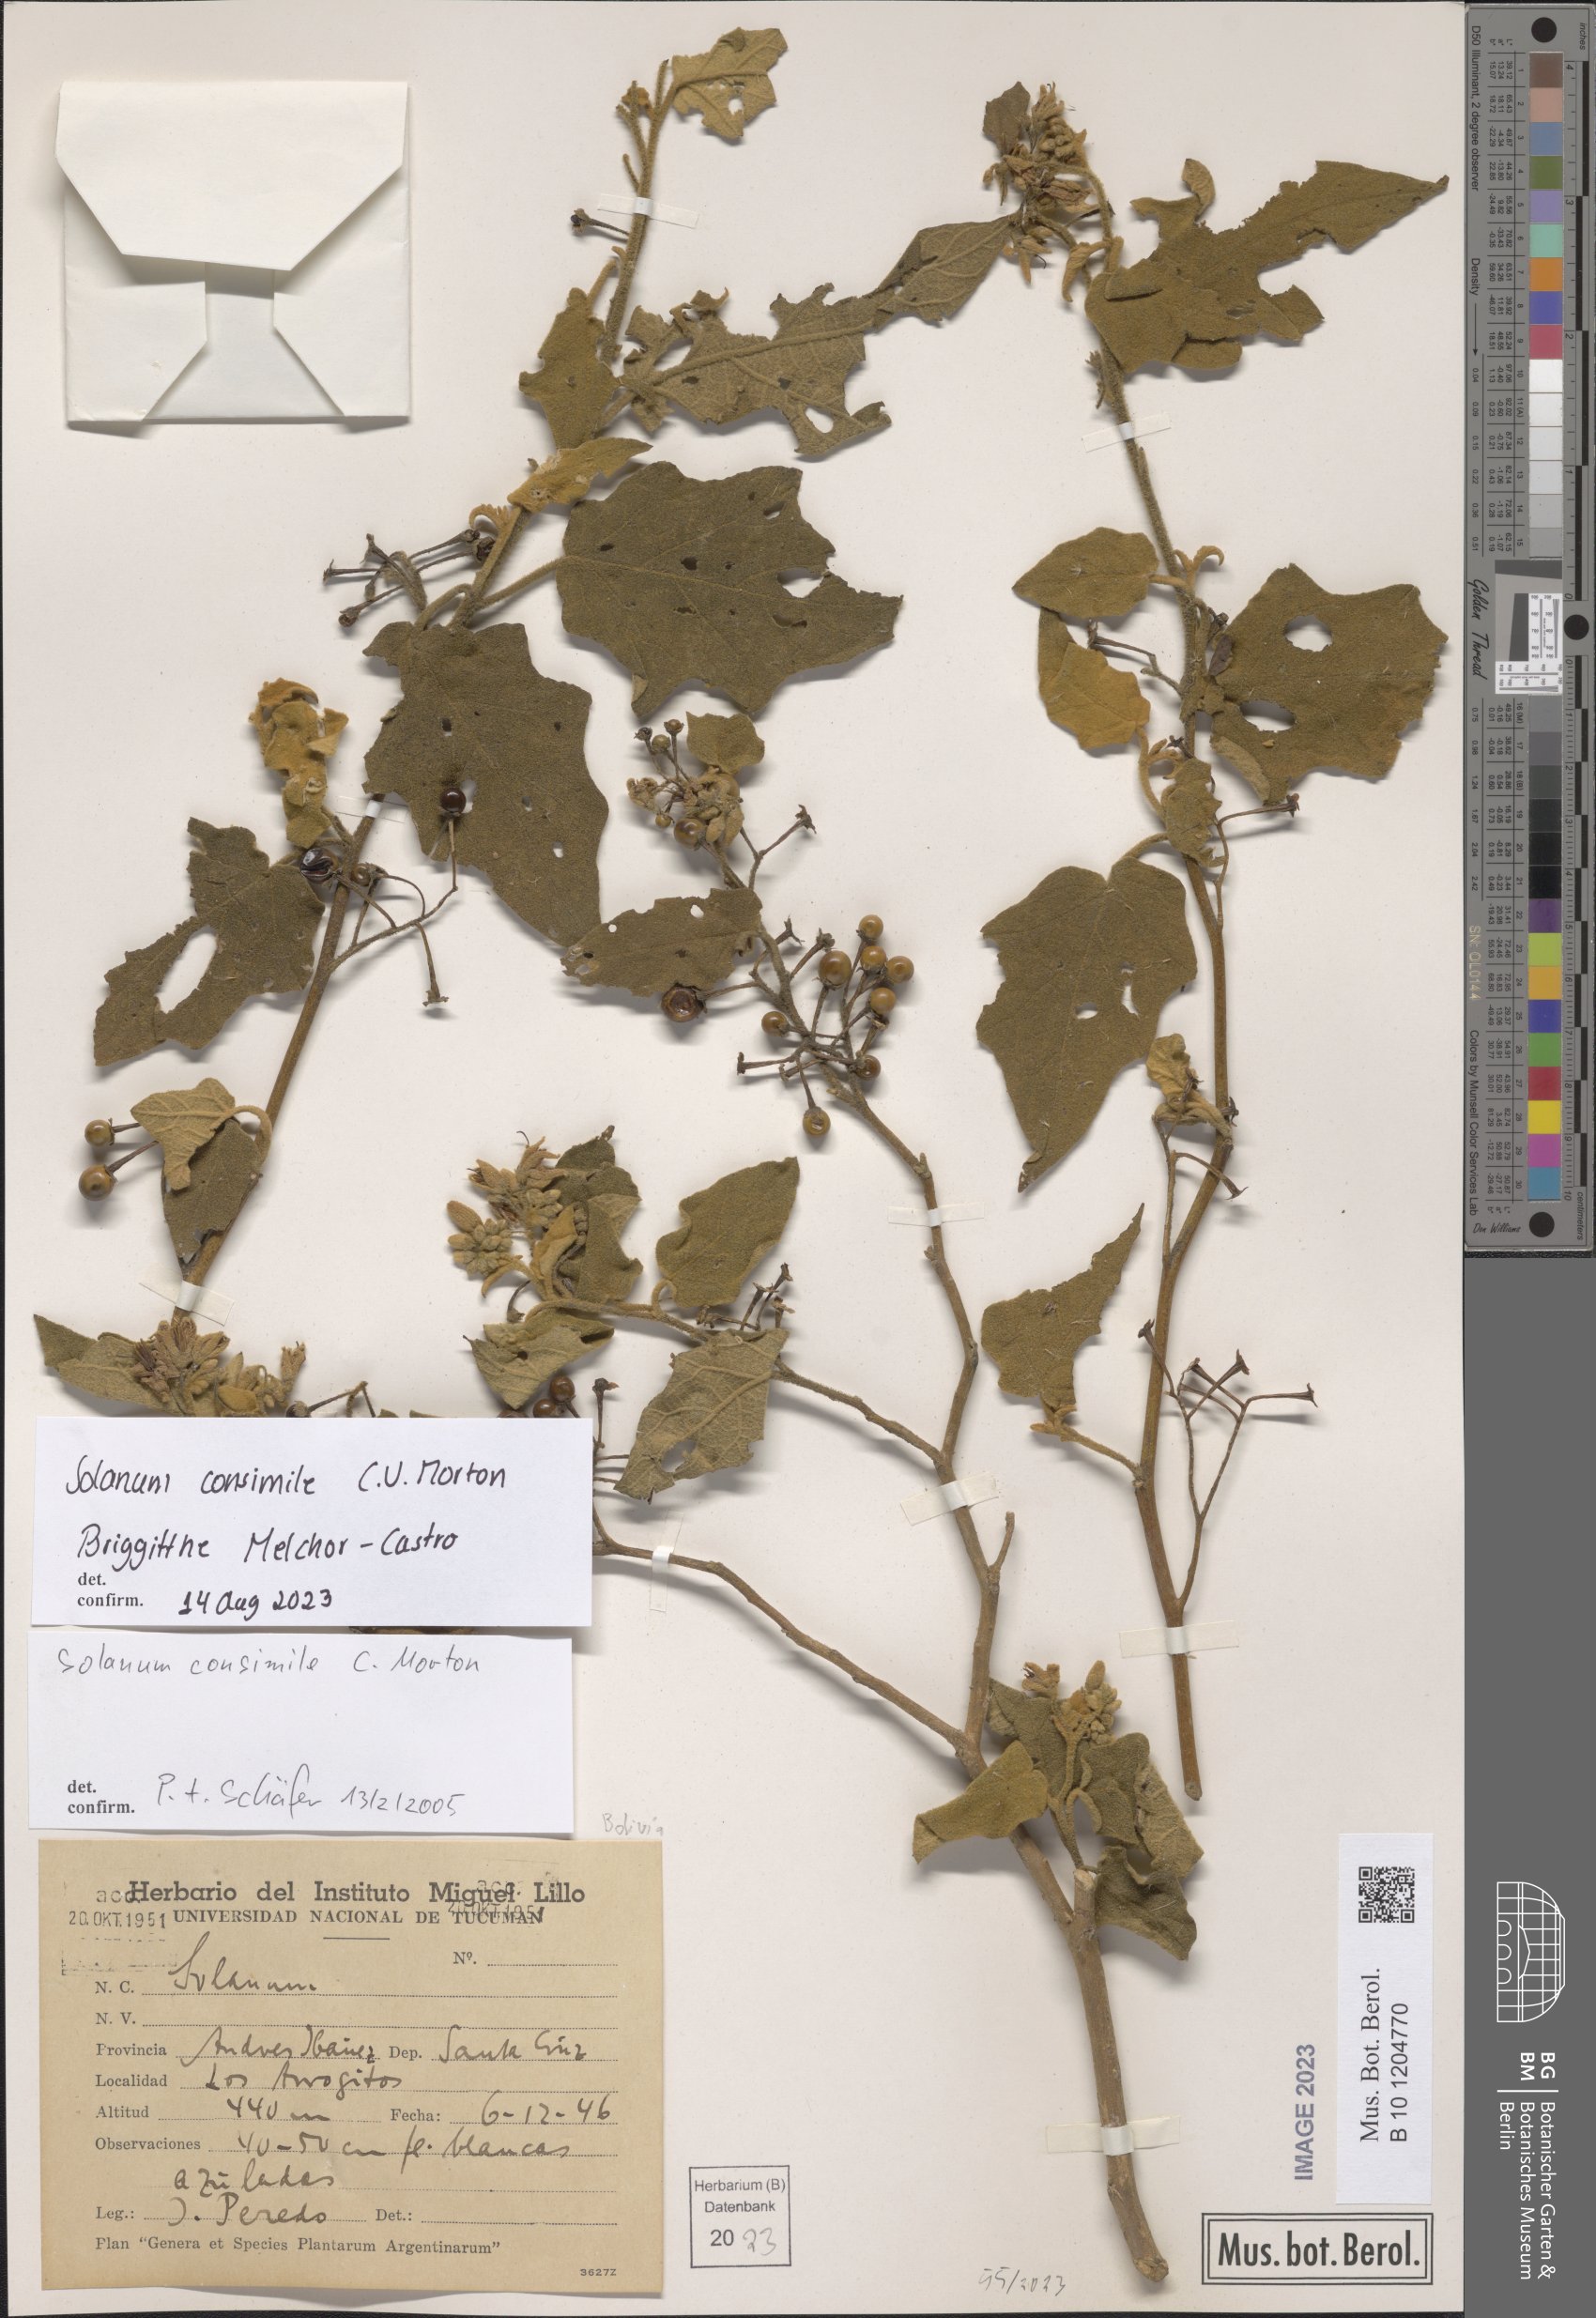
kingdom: Plantae
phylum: Tracheophyta
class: Magnoliopsida
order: Solanales
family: Solanaceae
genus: Solanum
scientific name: Solanum consimile
